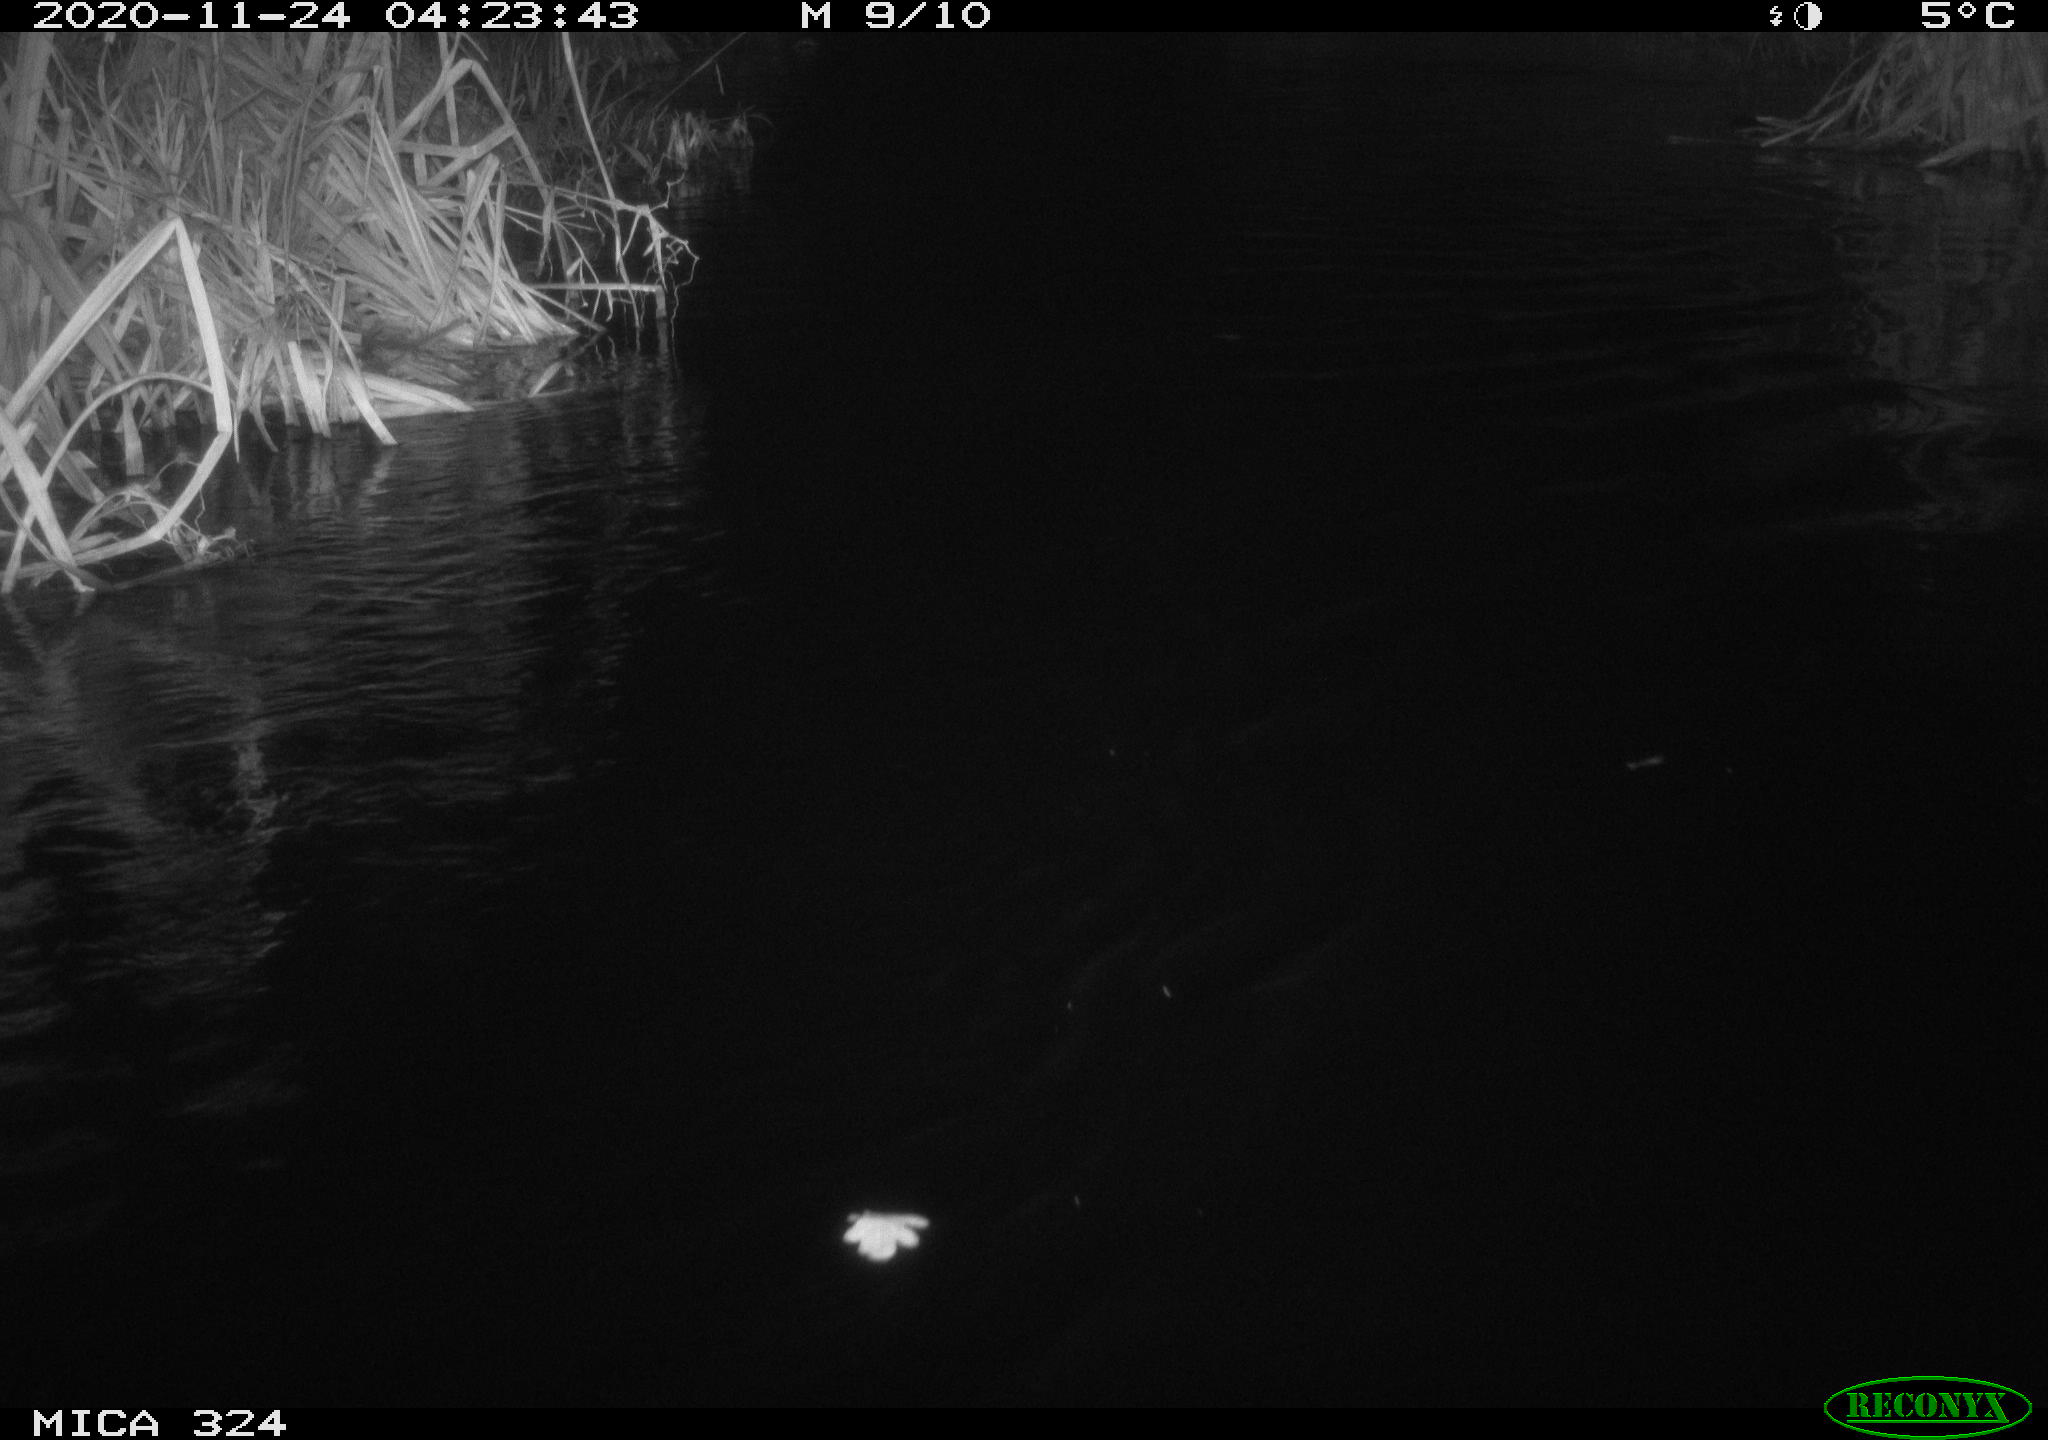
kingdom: Animalia
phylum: Chordata
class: Mammalia
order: Rodentia
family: Myocastoridae
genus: Myocastor
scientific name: Myocastor coypus
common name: Coypu
